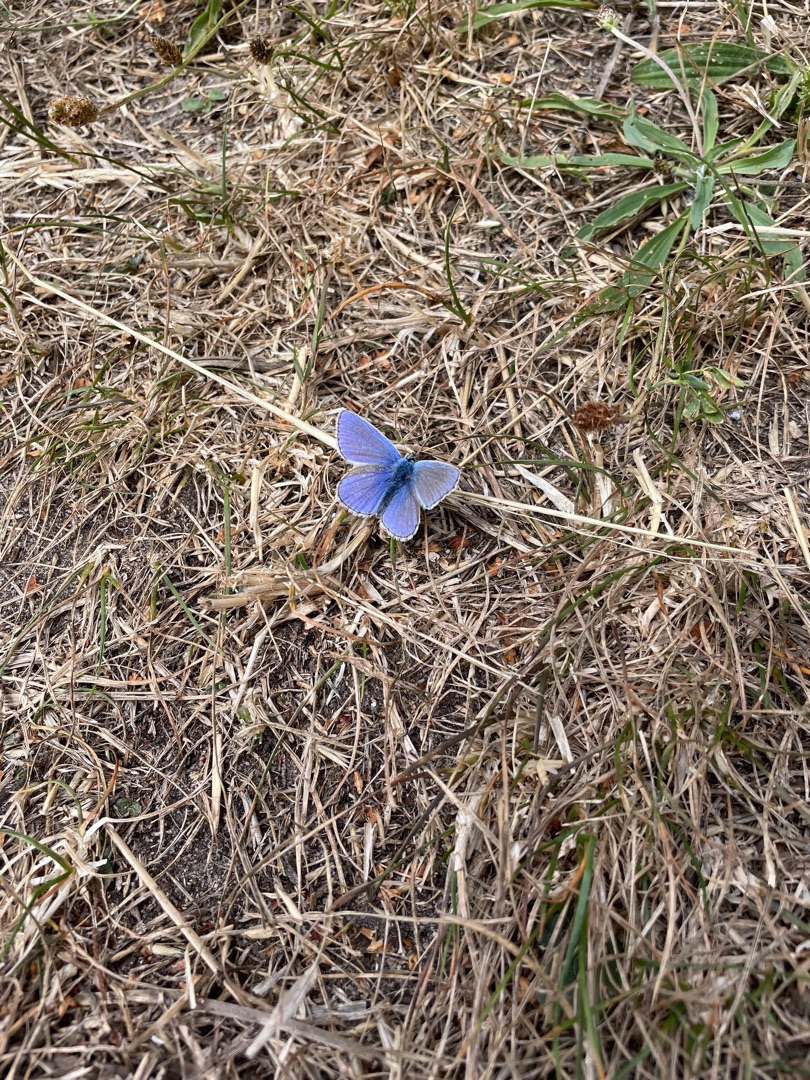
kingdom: Animalia
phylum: Arthropoda
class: Insecta
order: Lepidoptera
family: Lycaenidae
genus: Polyommatus
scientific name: Polyommatus icarus
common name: Almindelig blåfugl
